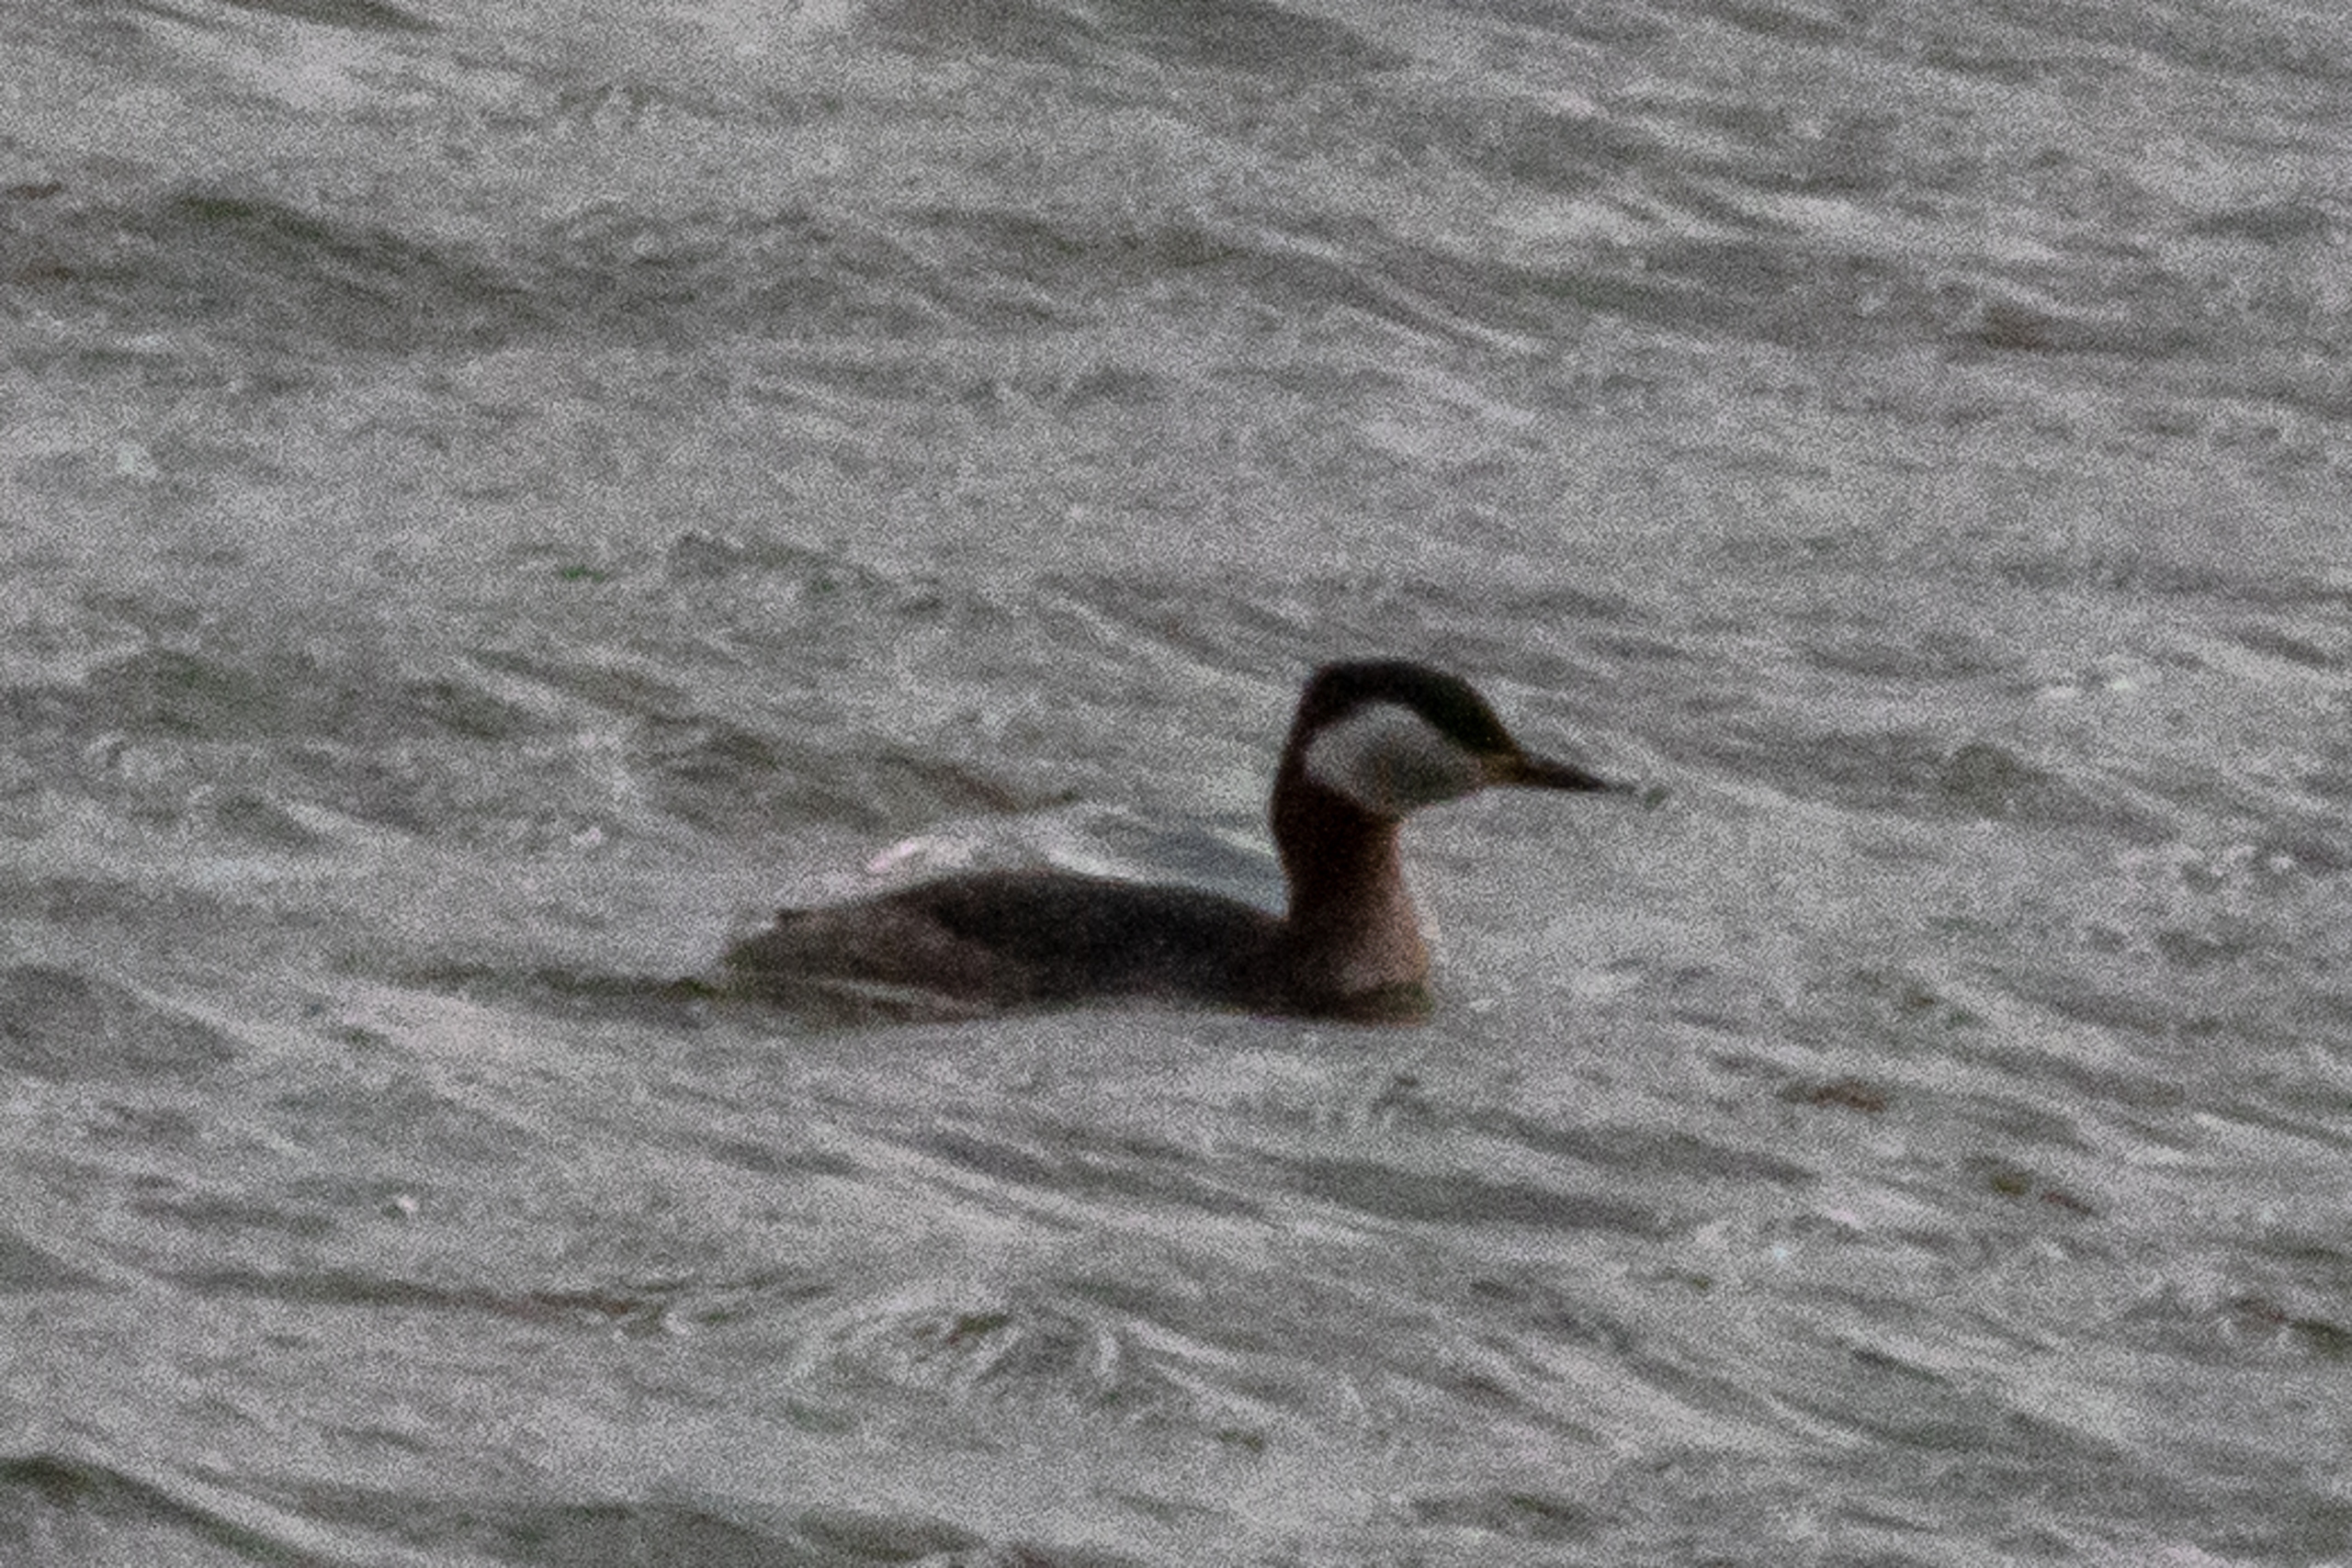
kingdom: Animalia
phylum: Chordata
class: Aves
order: Podicipediformes
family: Podicipedidae
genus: Podiceps
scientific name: Podiceps grisegena
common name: Gråstrubet lappedykker
